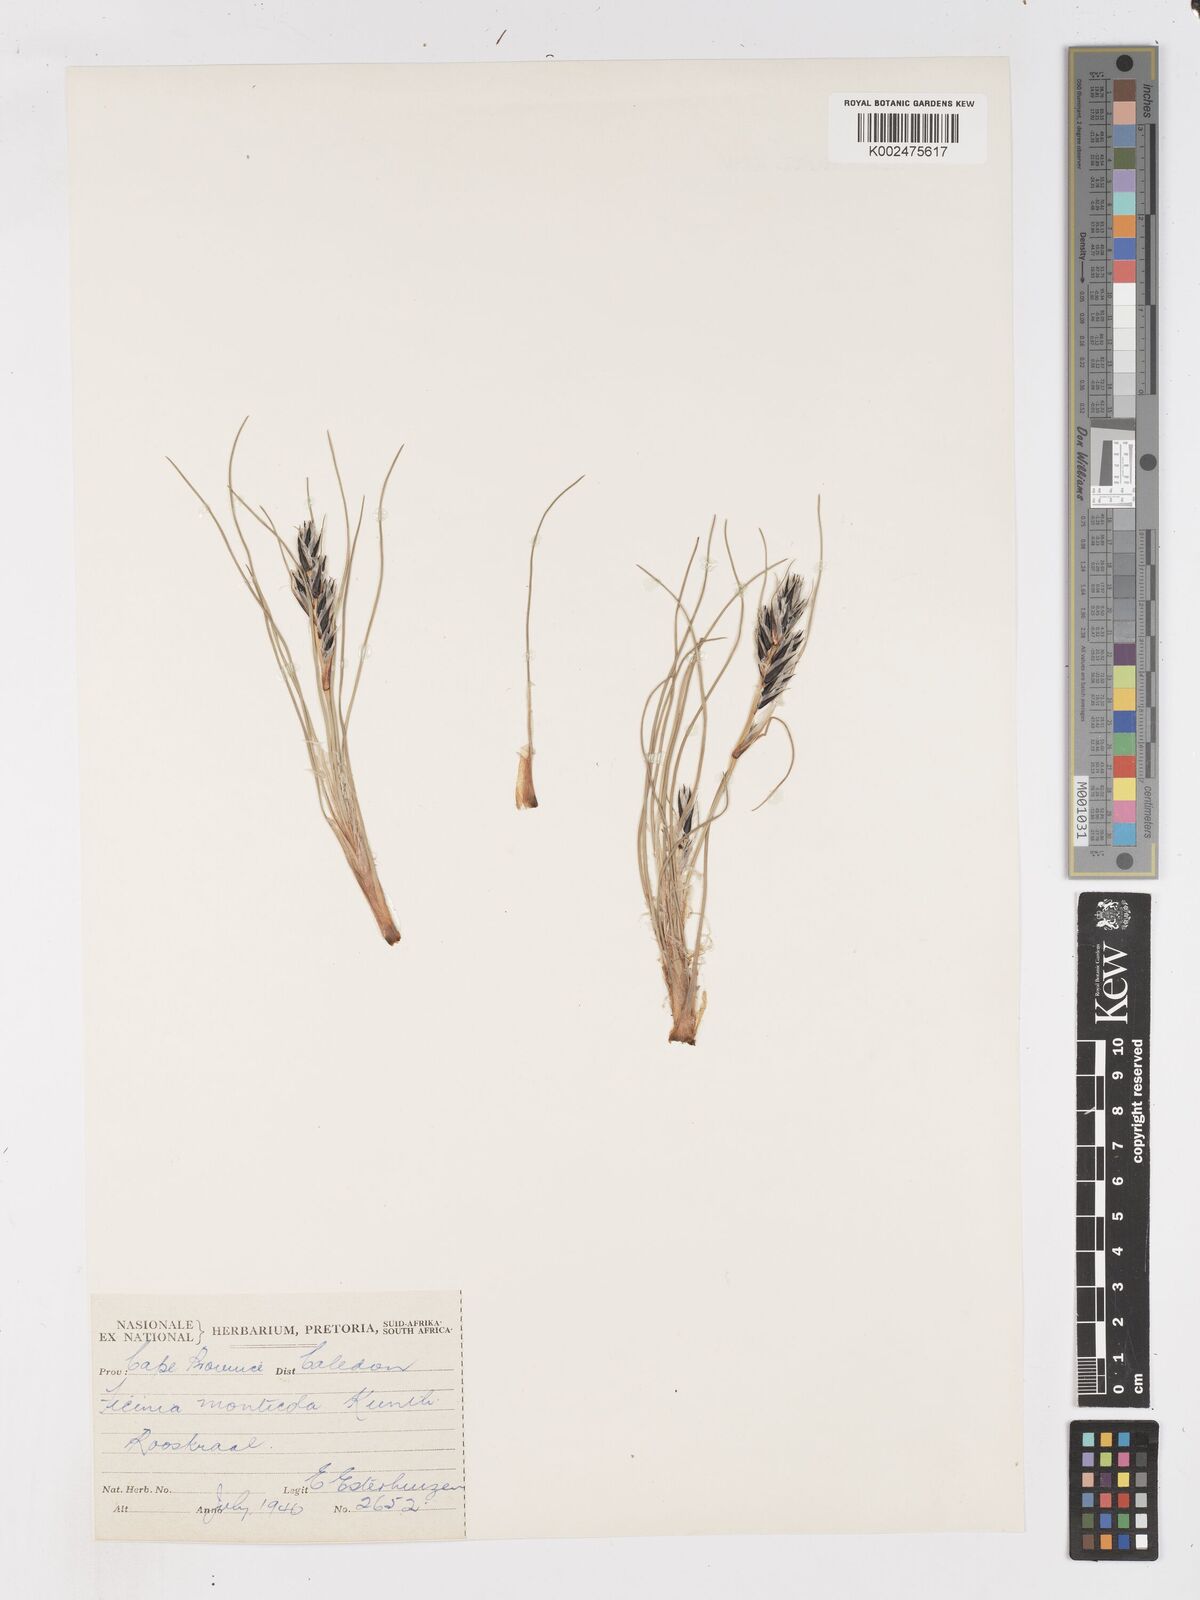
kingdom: Plantae
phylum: Tracheophyta
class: Liliopsida
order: Poales
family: Cyperaceae
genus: Ficinia
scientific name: Ficinia monticola
